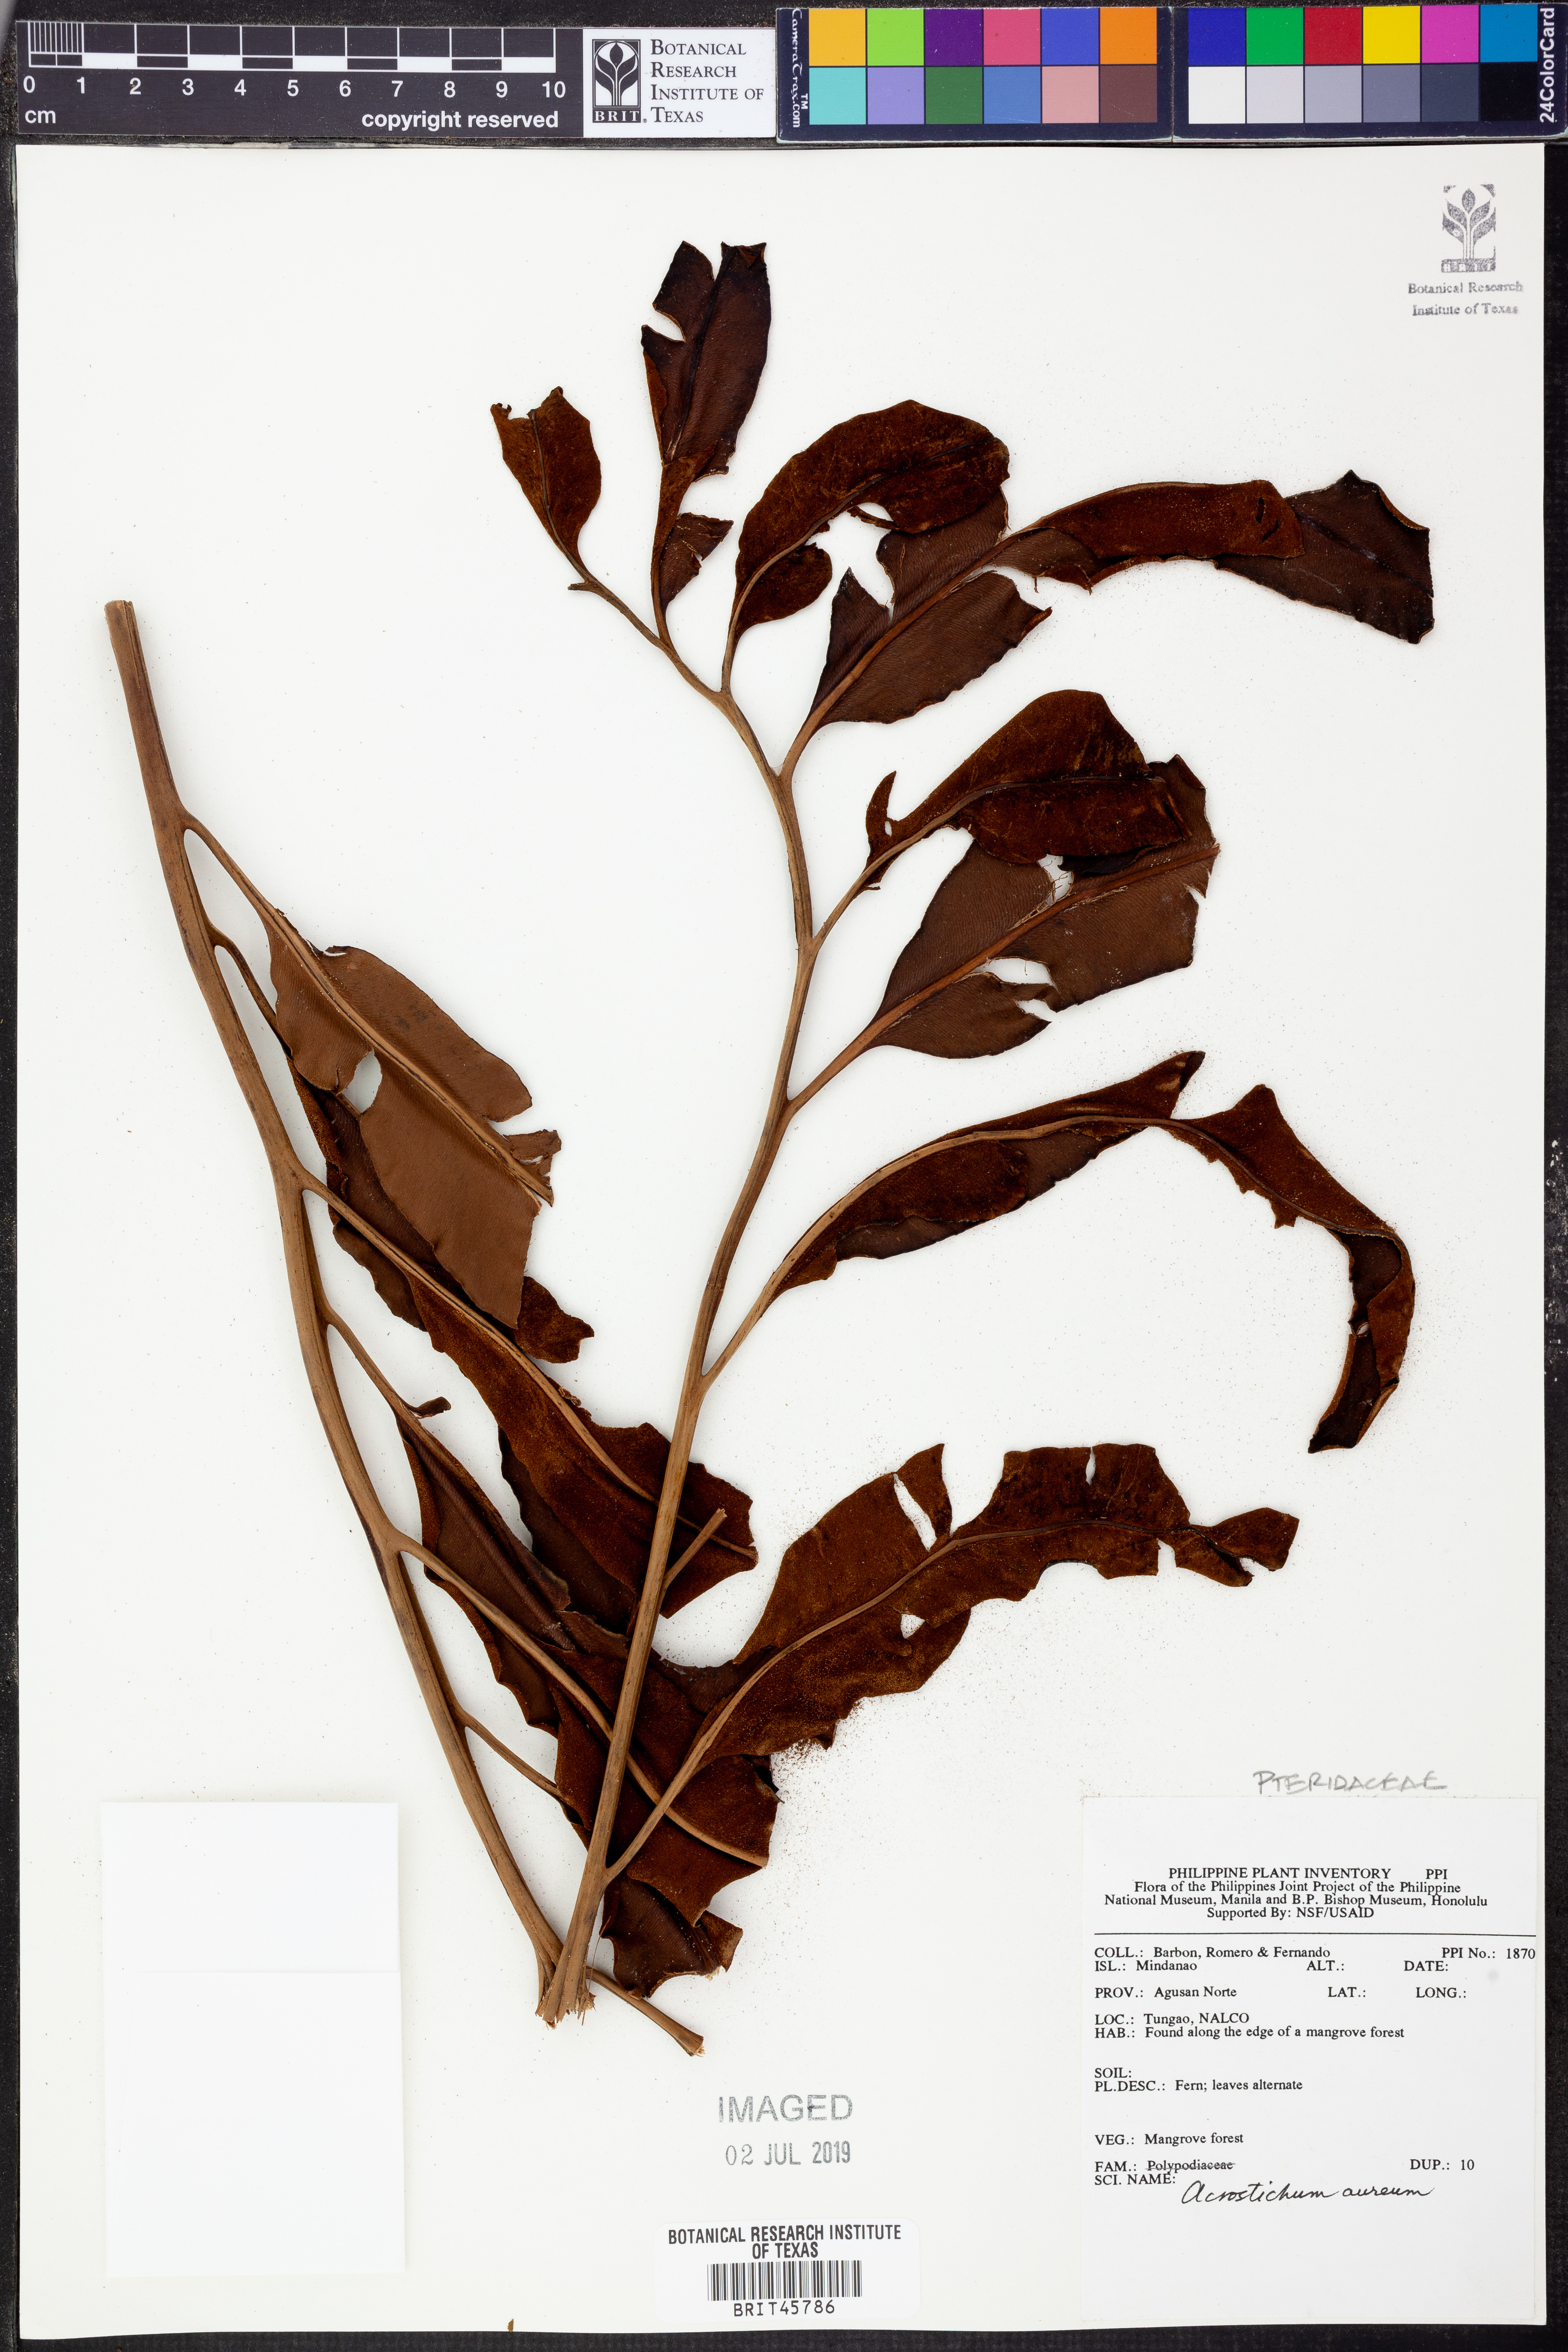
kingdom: Plantae
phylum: Tracheophyta
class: Polypodiopsida
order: Polypodiales
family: Pteridaceae
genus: Acrostichum
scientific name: Acrostichum aureum
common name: Leather fern
